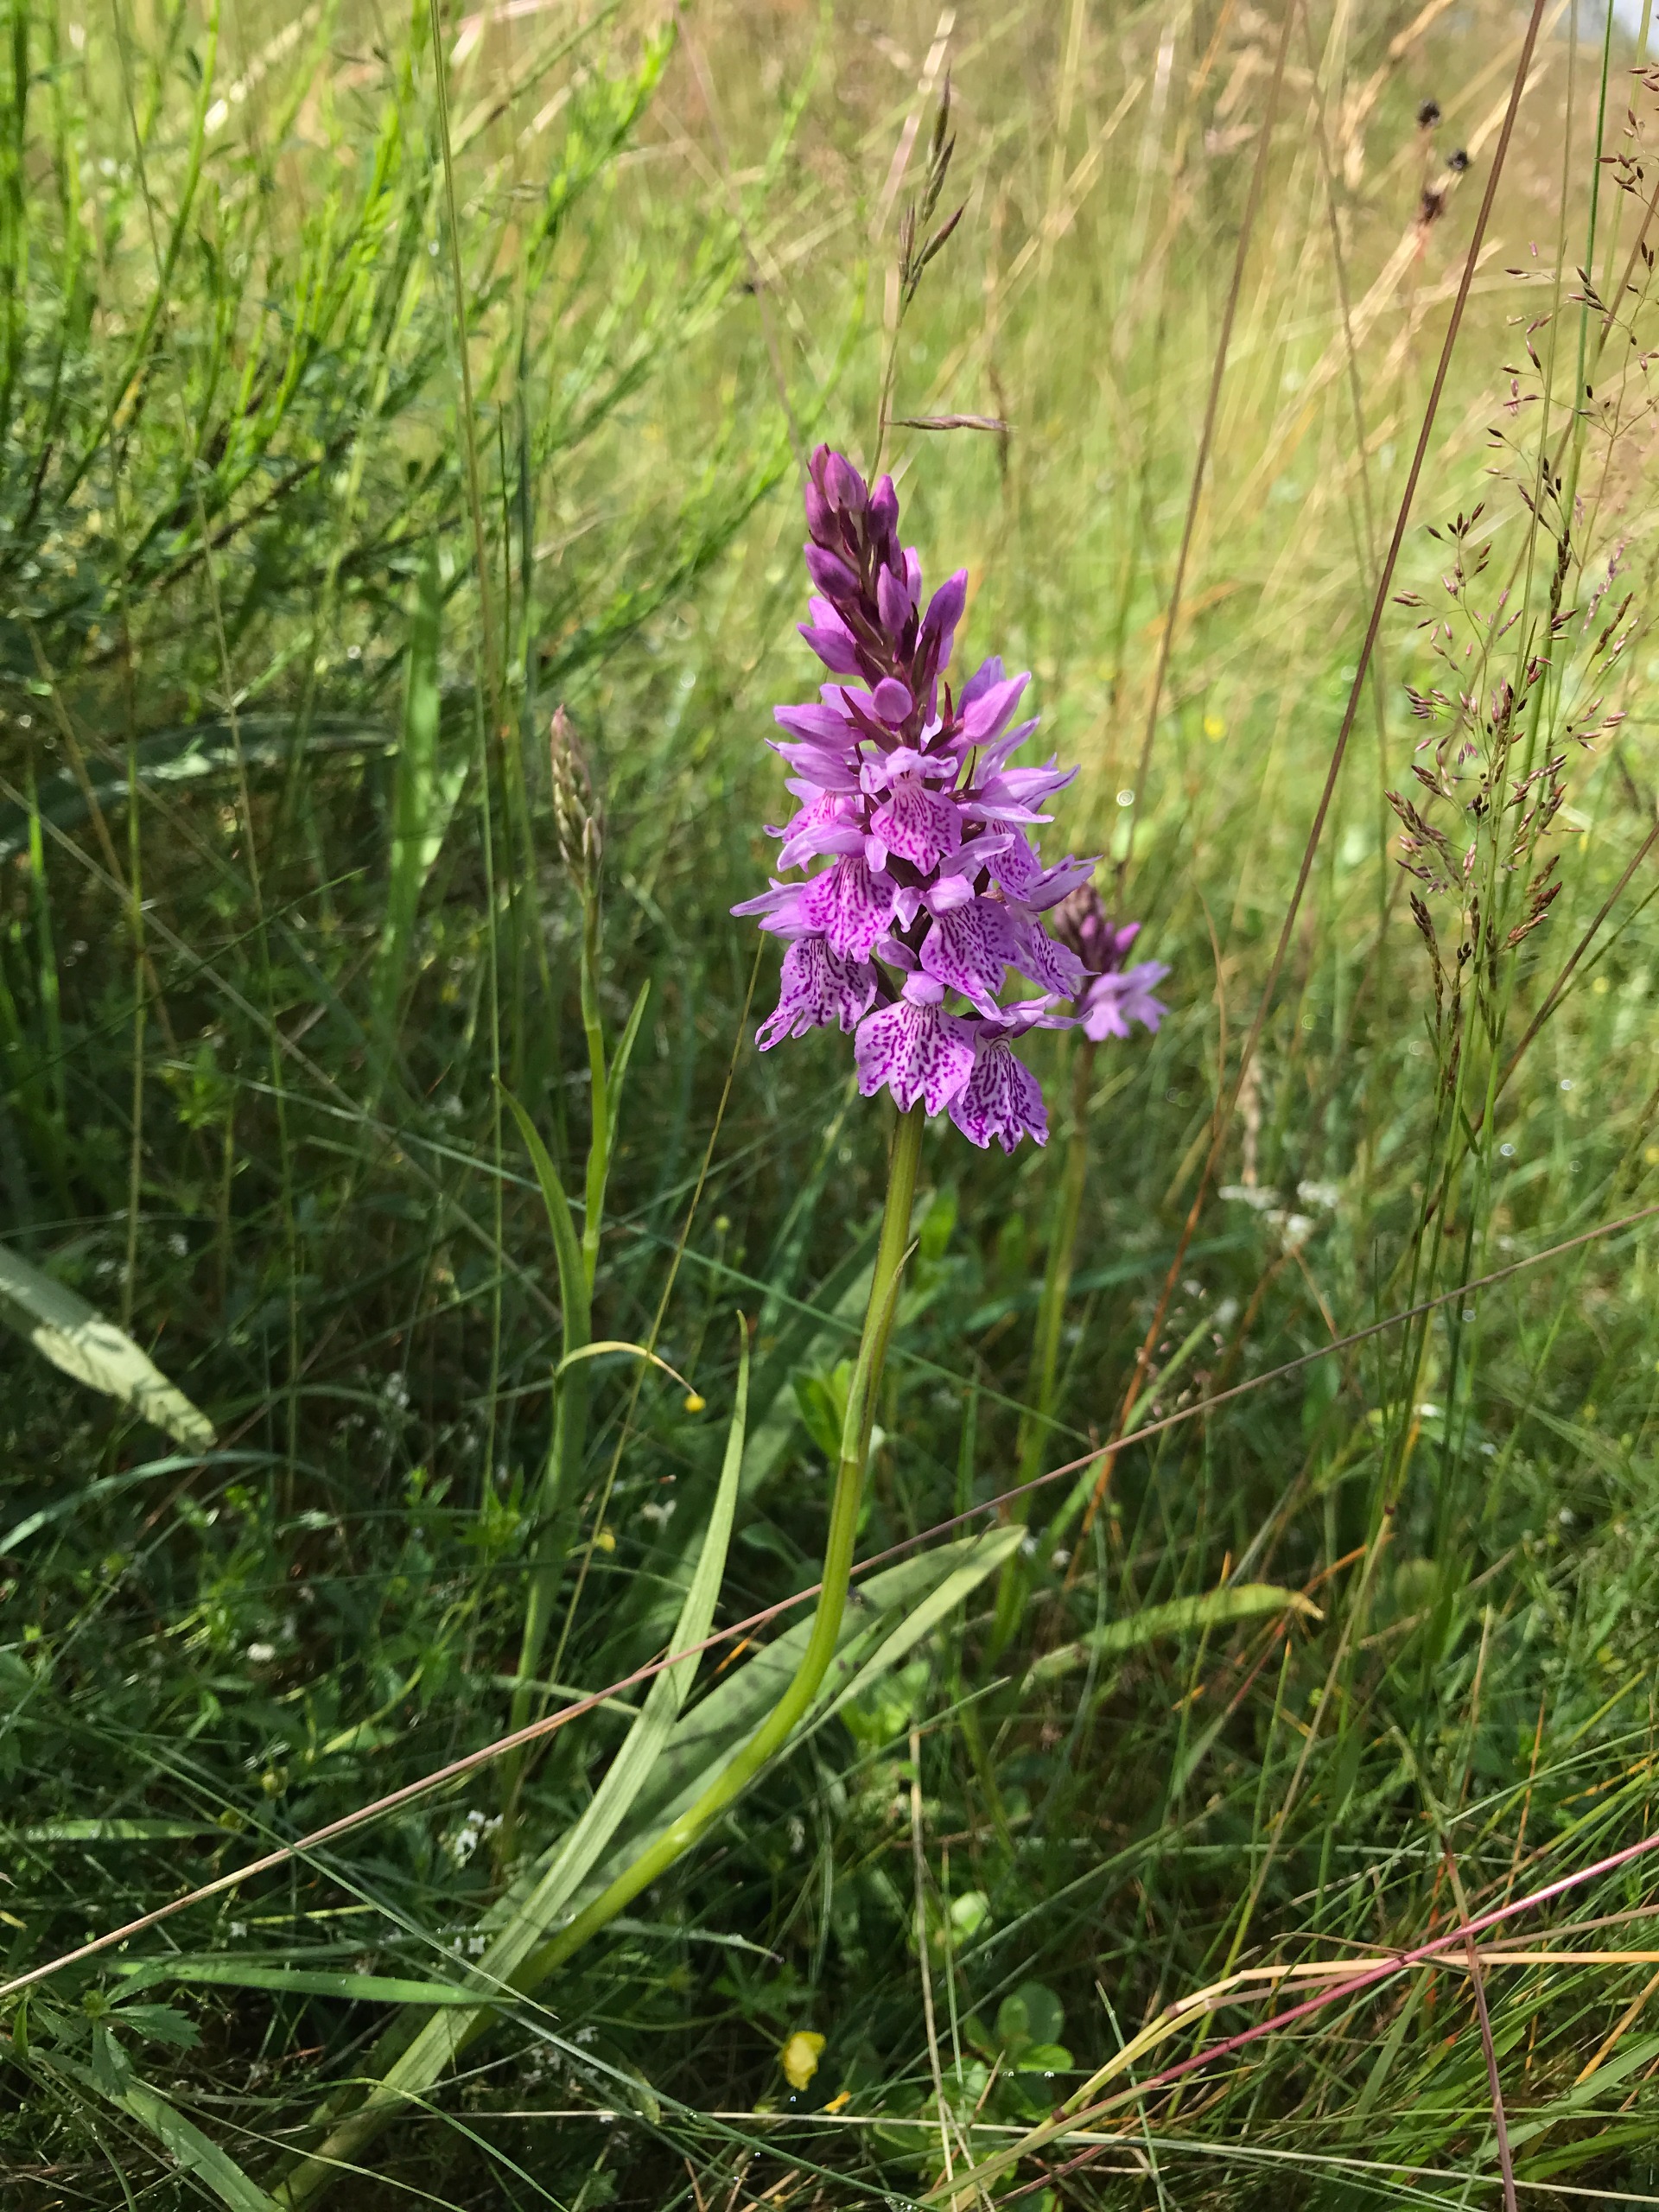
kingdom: Plantae
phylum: Tracheophyta
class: Liliopsida
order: Asparagales
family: Orchidaceae
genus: Dactylorhiza
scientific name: Dactylorhiza maculata
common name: Plettet gøgeurt
